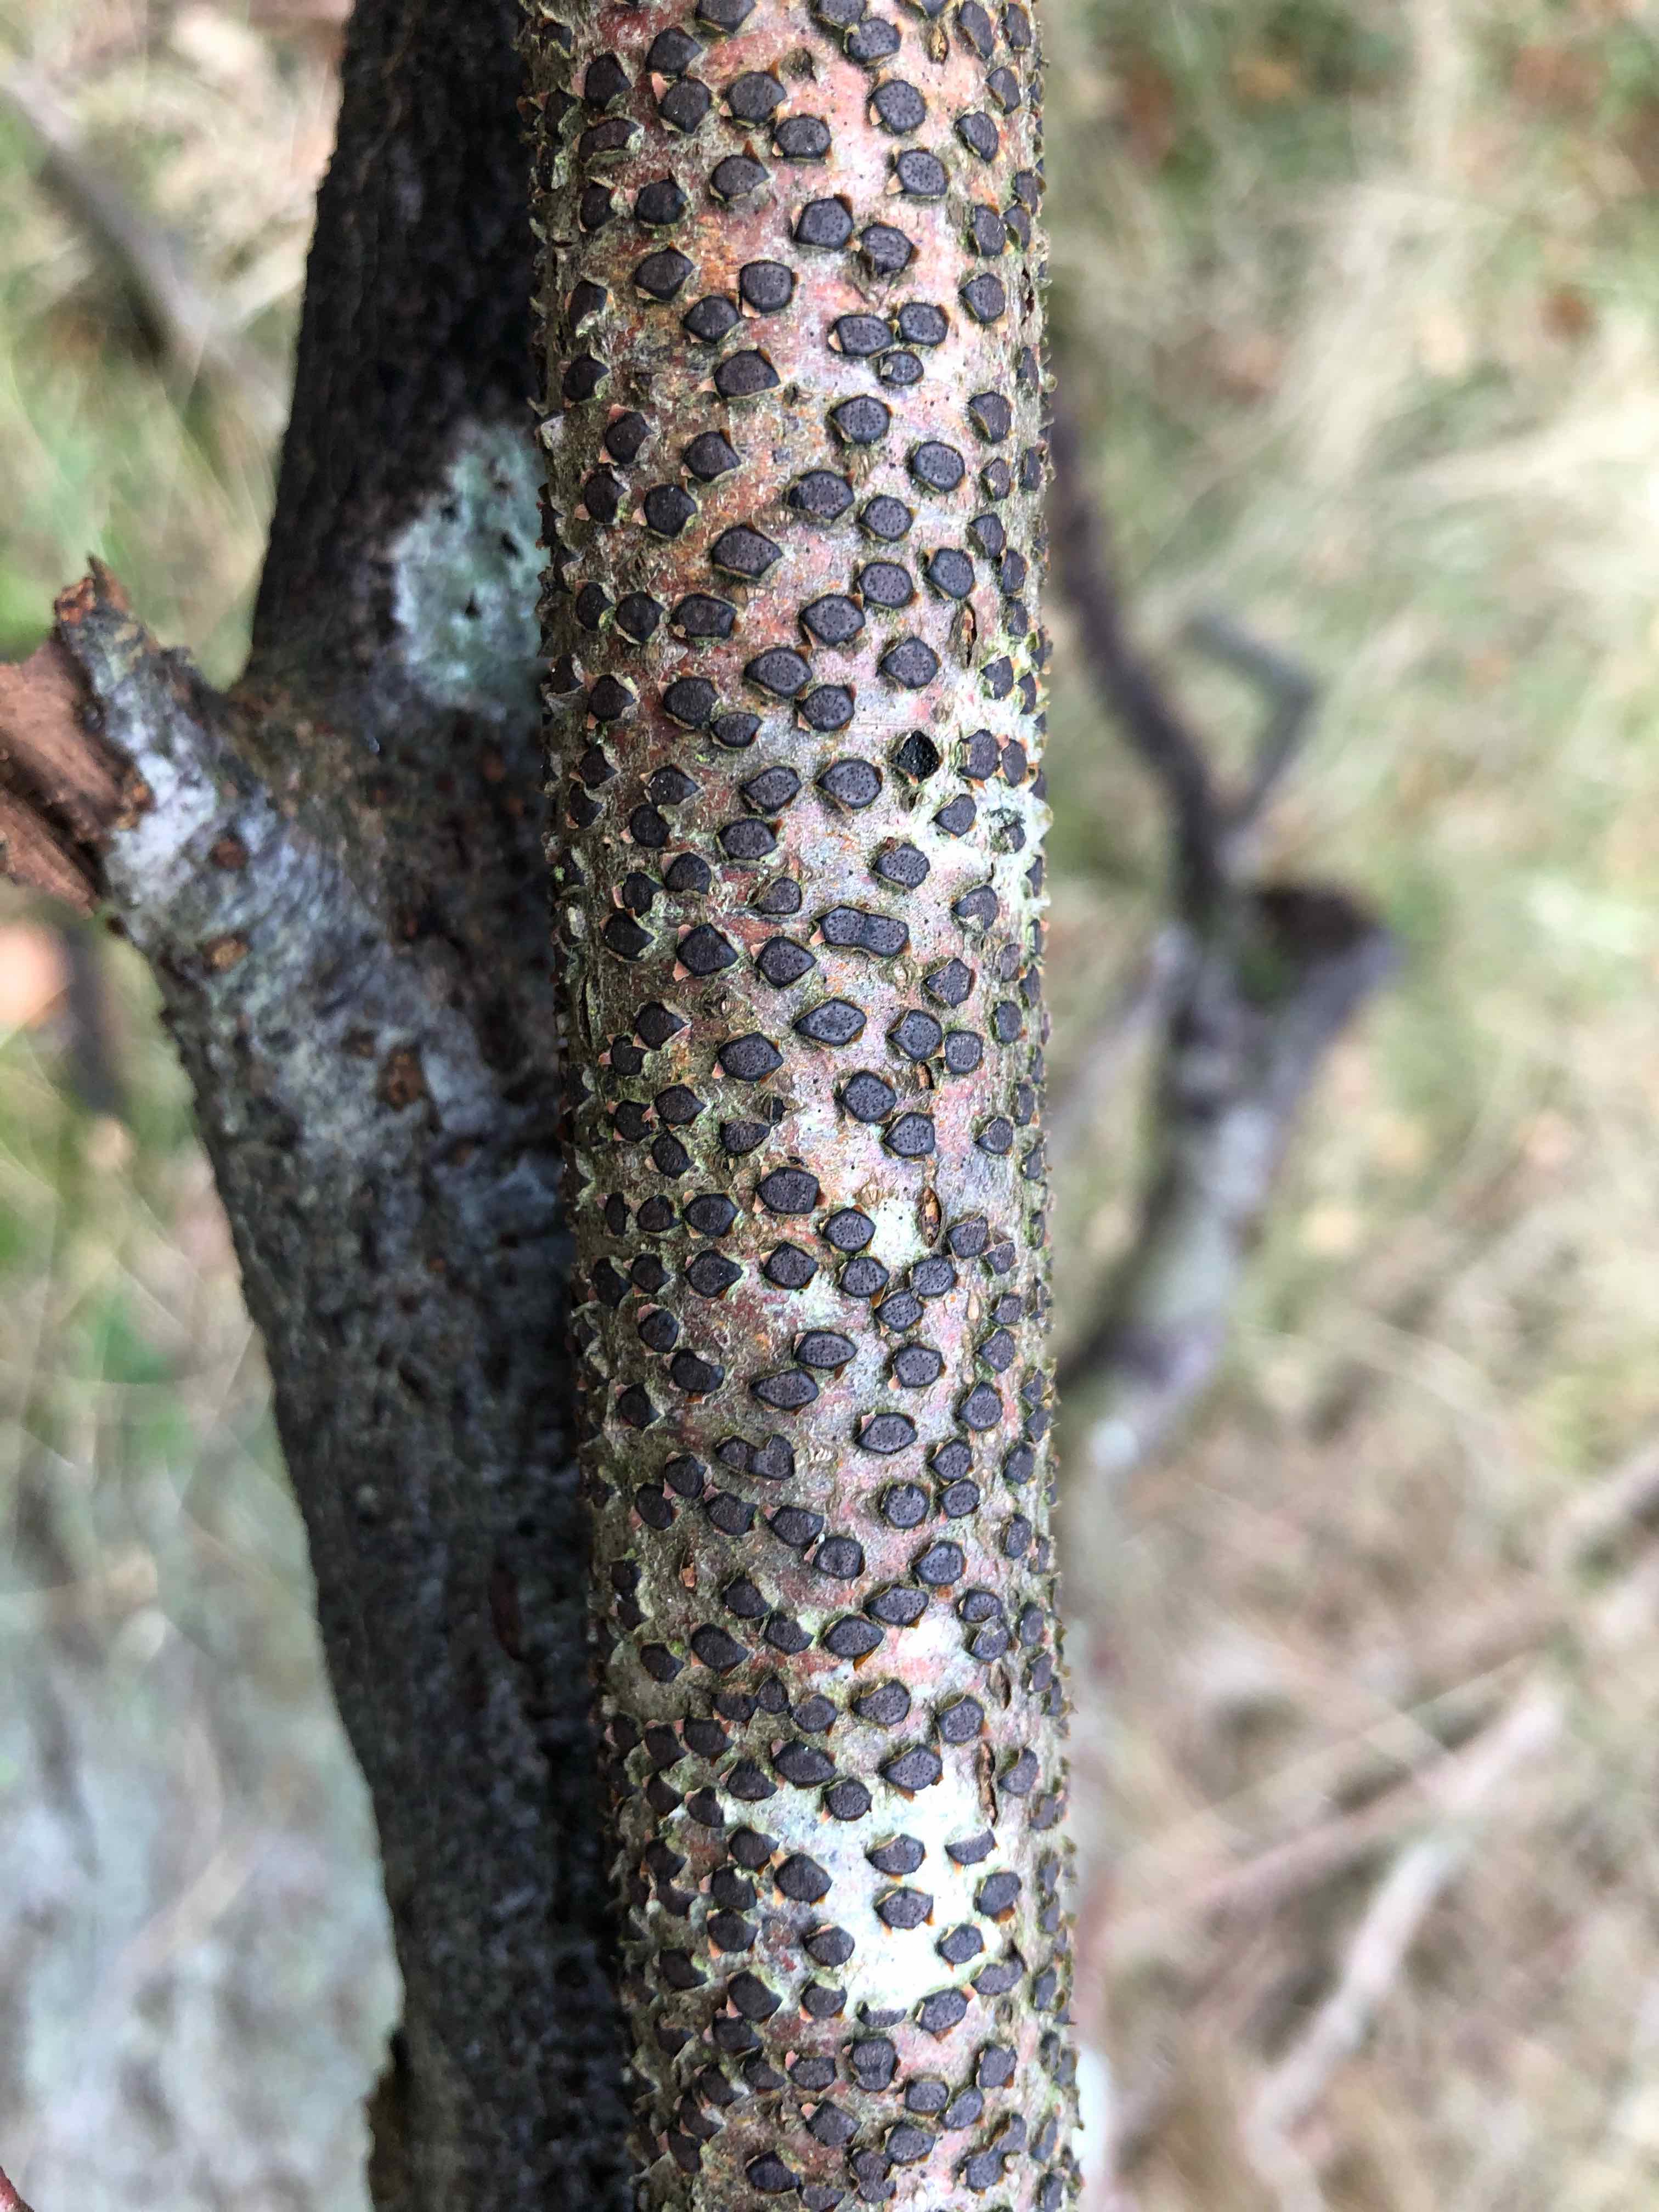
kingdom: Fungi
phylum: Ascomycota
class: Sordariomycetes
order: Xylariales
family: Diatrypaceae
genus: Diatrype
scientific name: Diatrype disciformis
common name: kant-kulskorpe
